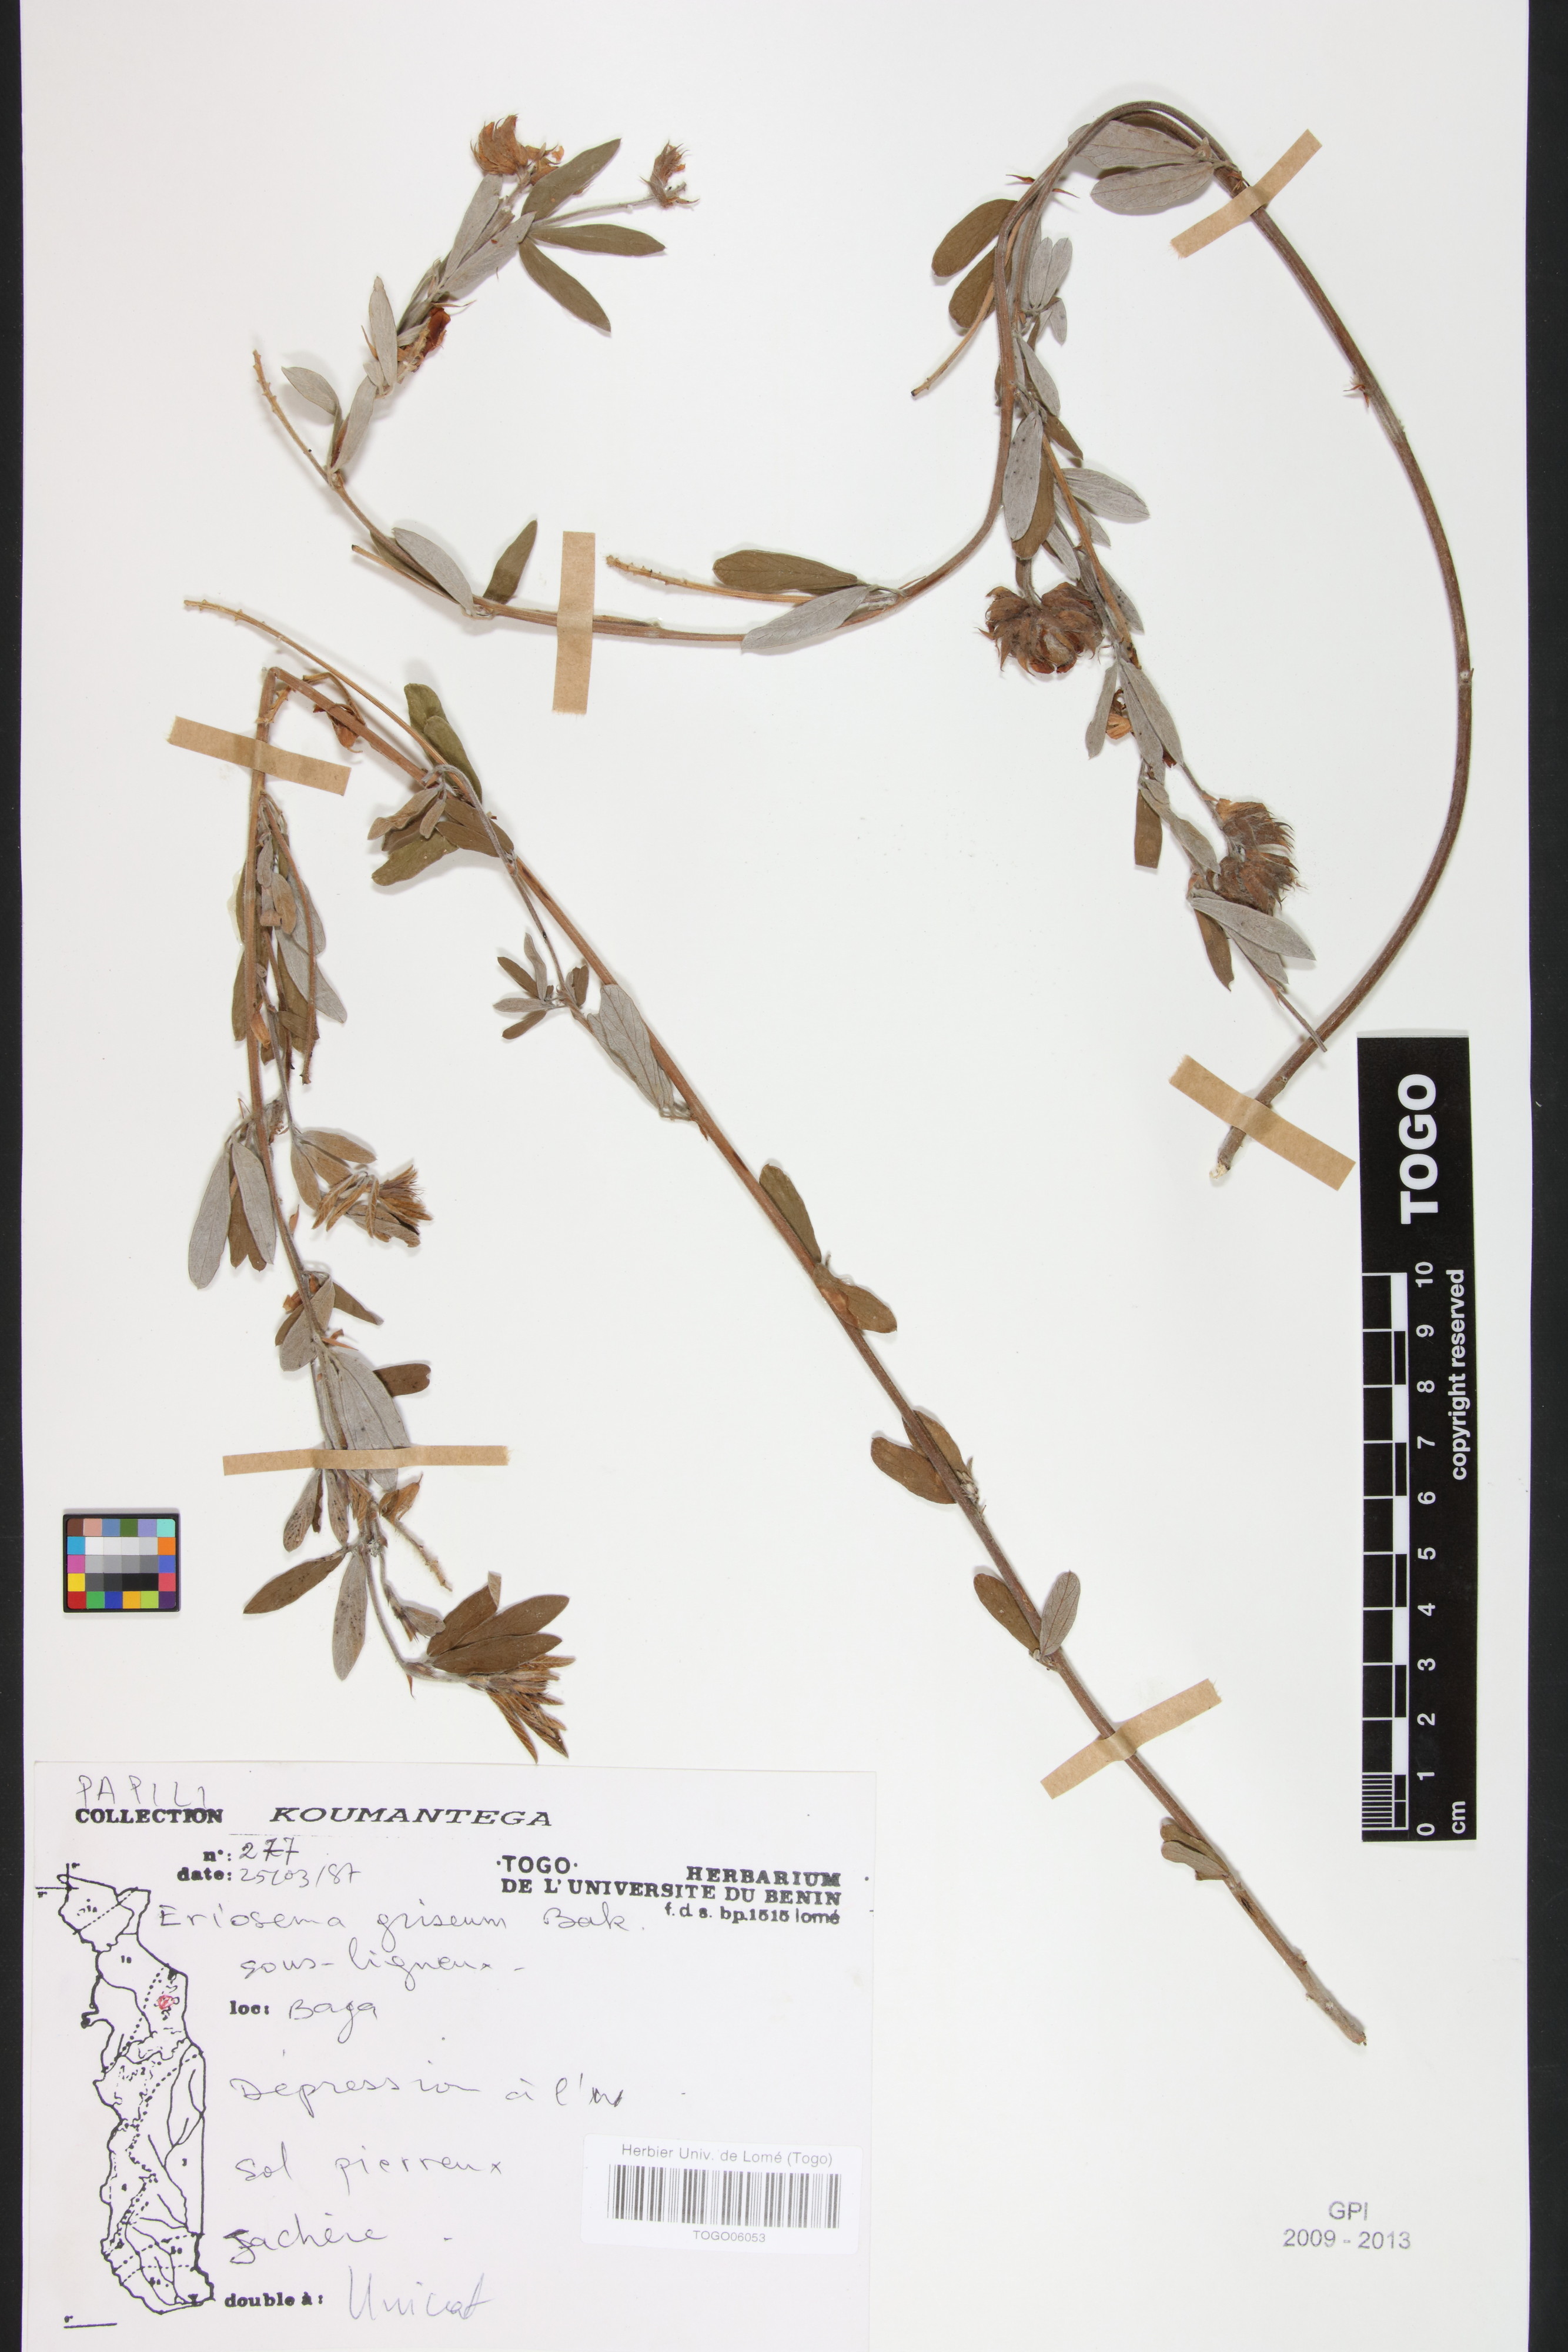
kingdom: Plantae
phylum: Tracheophyta
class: Magnoliopsida
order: Fabales
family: Fabaceae
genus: Eriosema
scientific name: Eriosema griseum
